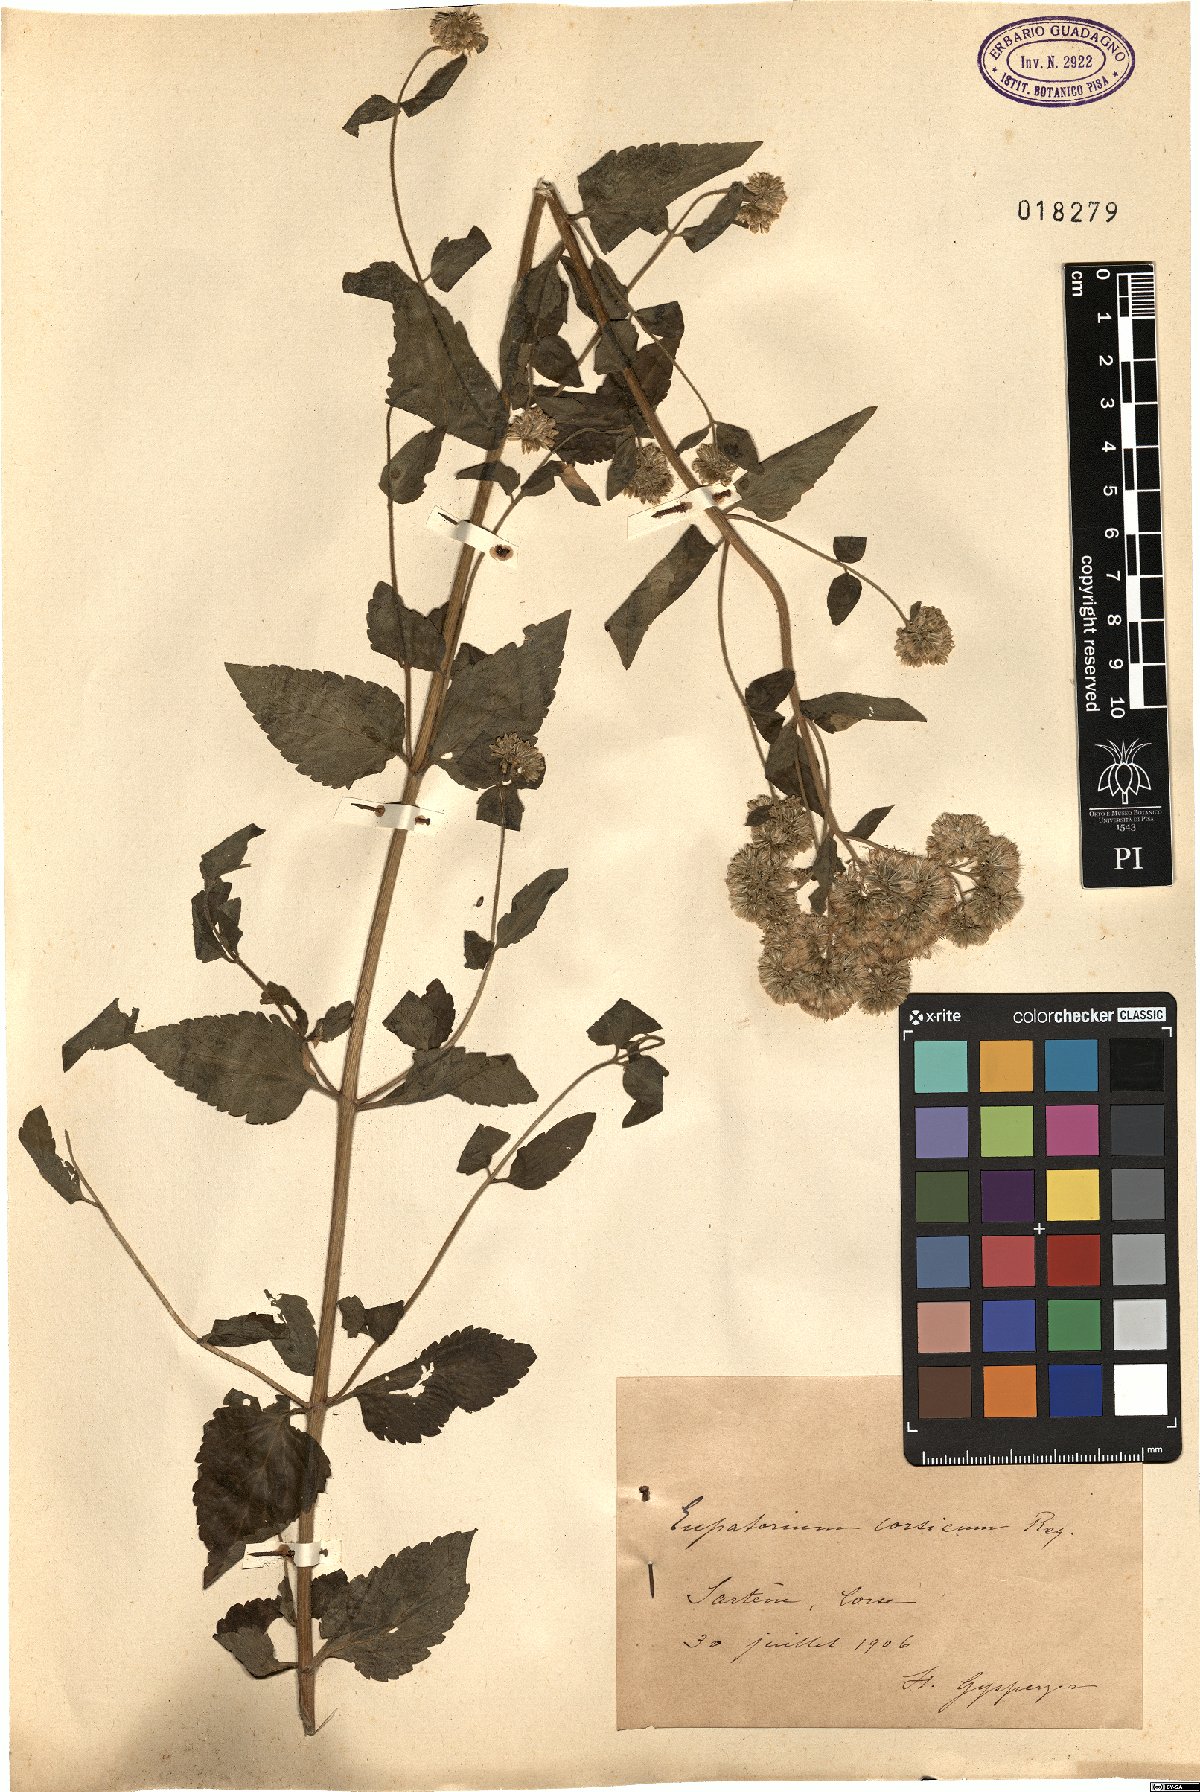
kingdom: Plantae
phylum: Tracheophyta
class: Magnoliopsida
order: Asterales
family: Asteraceae
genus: Eupatorium
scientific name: Eupatorium cannabinum
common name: Hemp-agrimony
